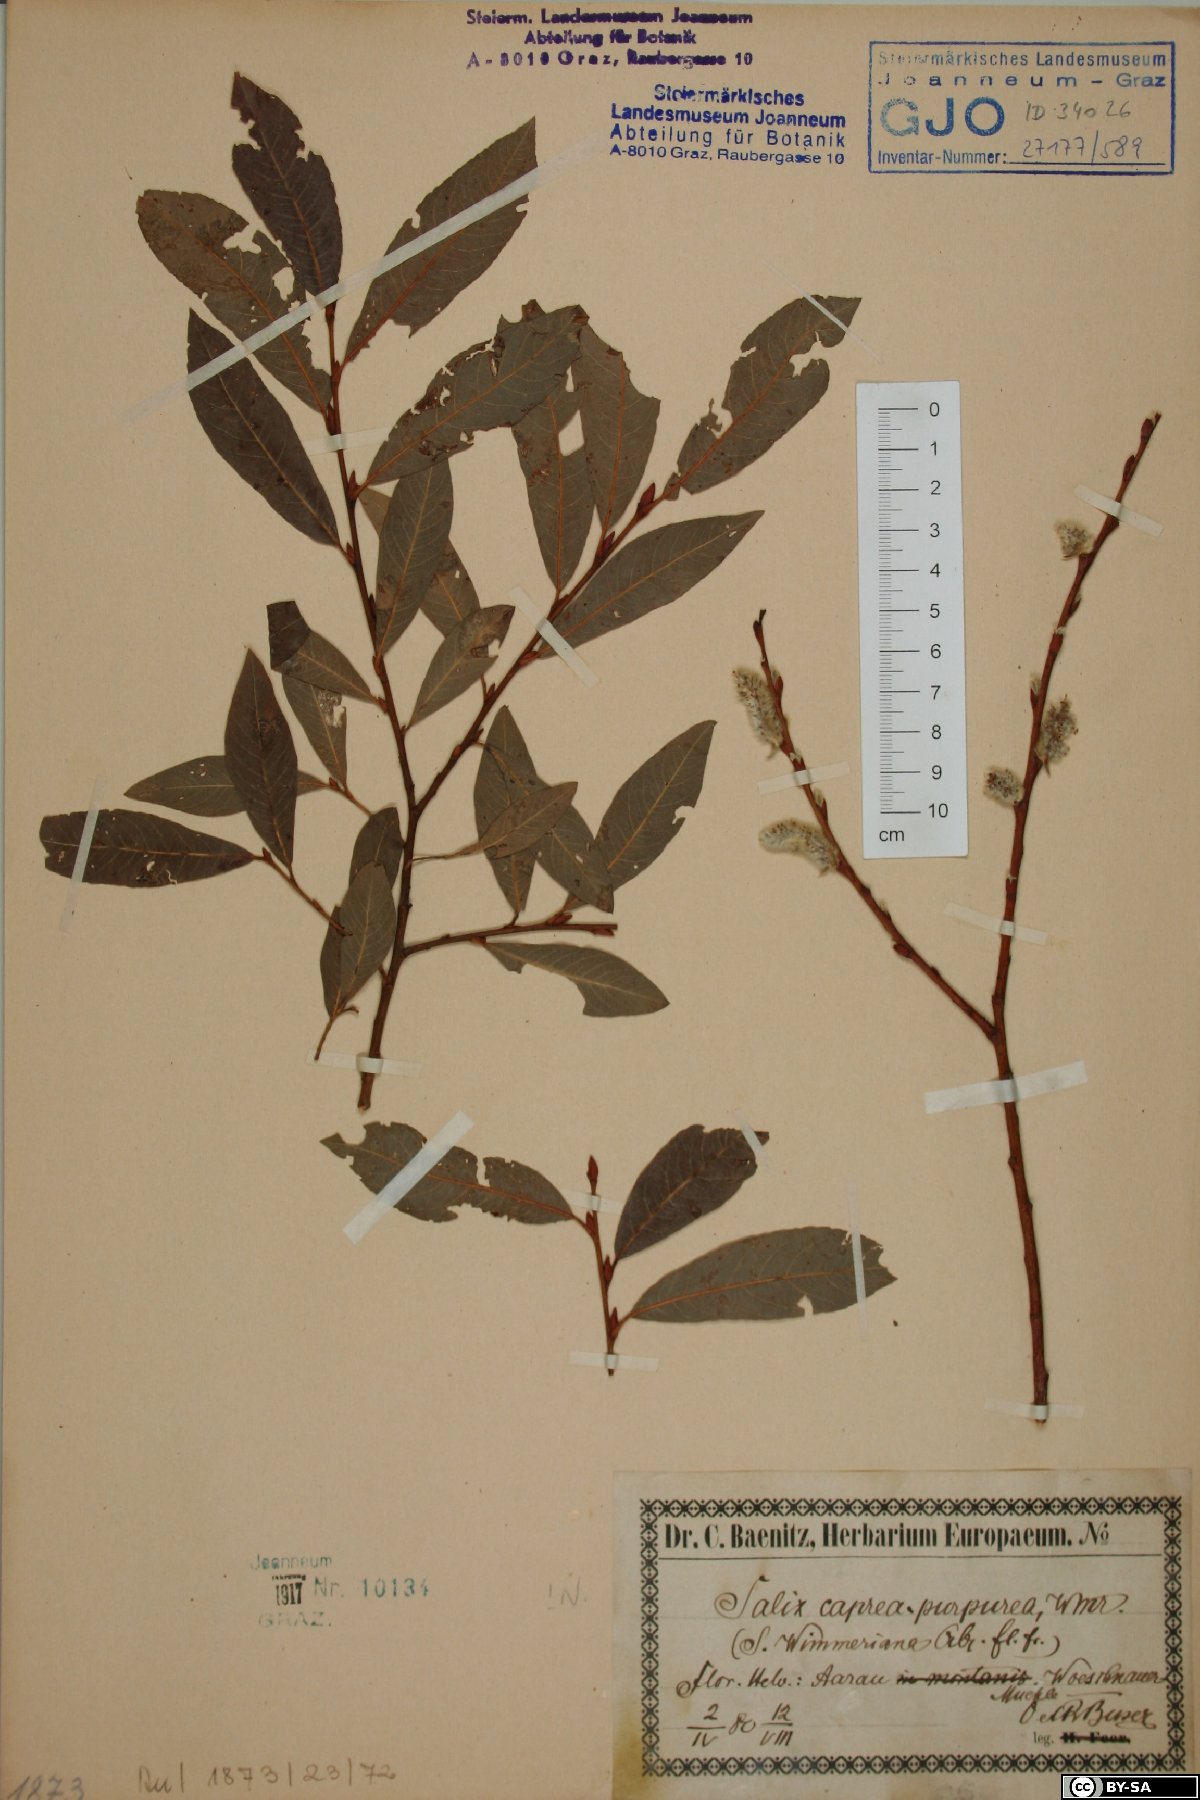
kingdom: Plantae
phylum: Tracheophyta
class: Magnoliopsida
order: Malpighiales
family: Salicaceae
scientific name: Salicaceae
